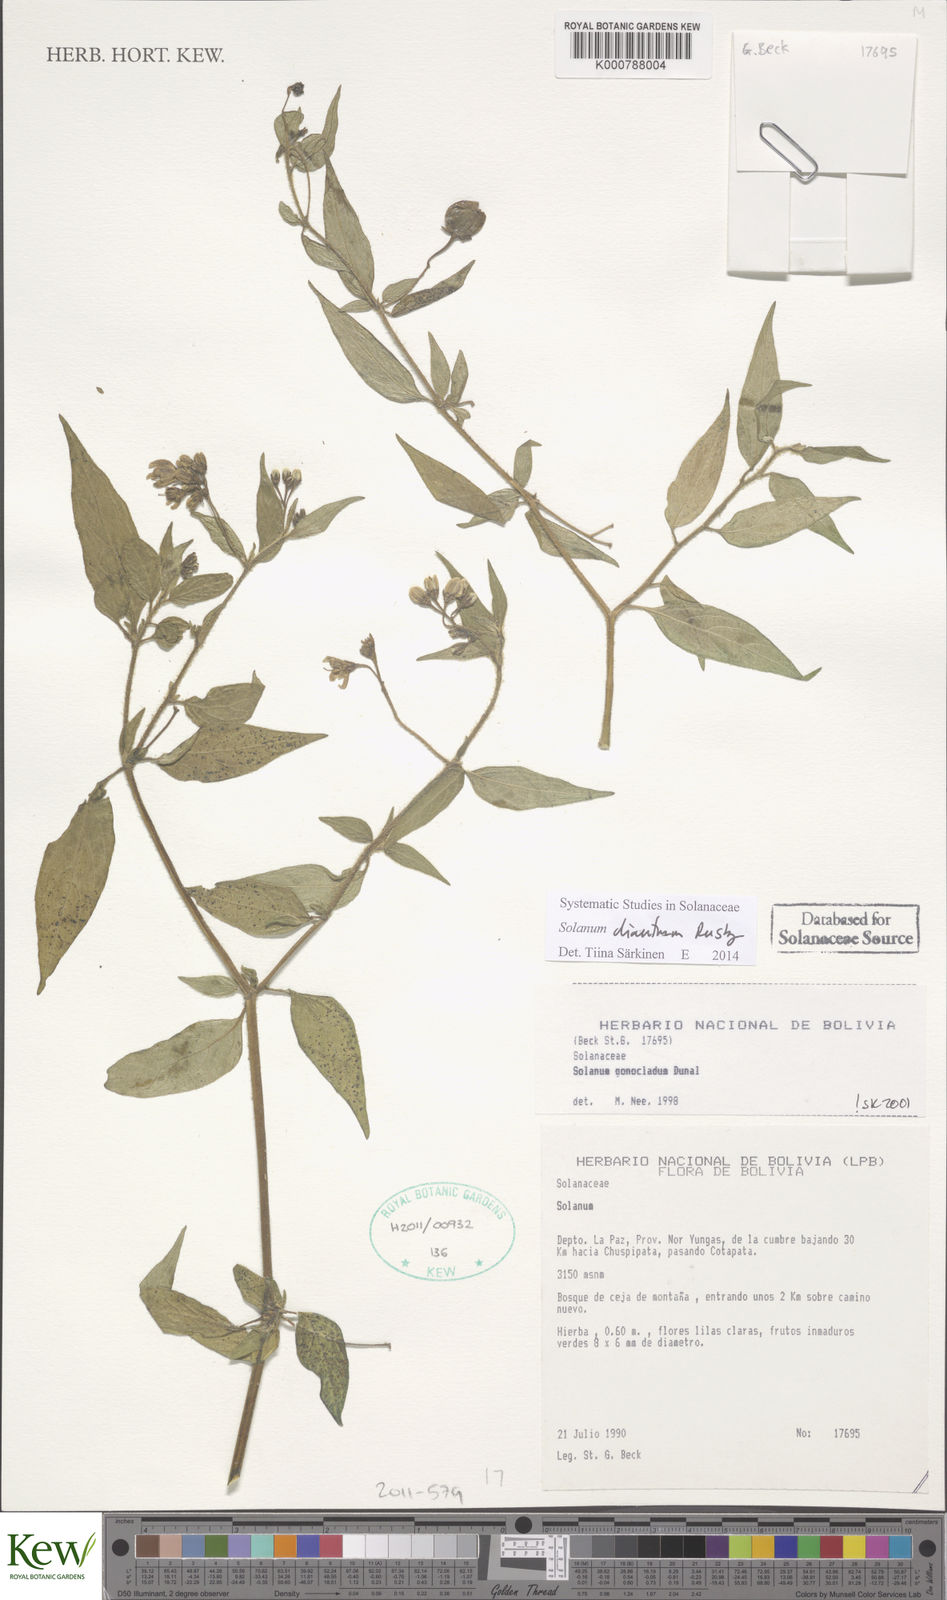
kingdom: Plantae
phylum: Tracheophyta
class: Magnoliopsida
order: Solanales
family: Solanaceae
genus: Solanum
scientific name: Solanum dianthum
